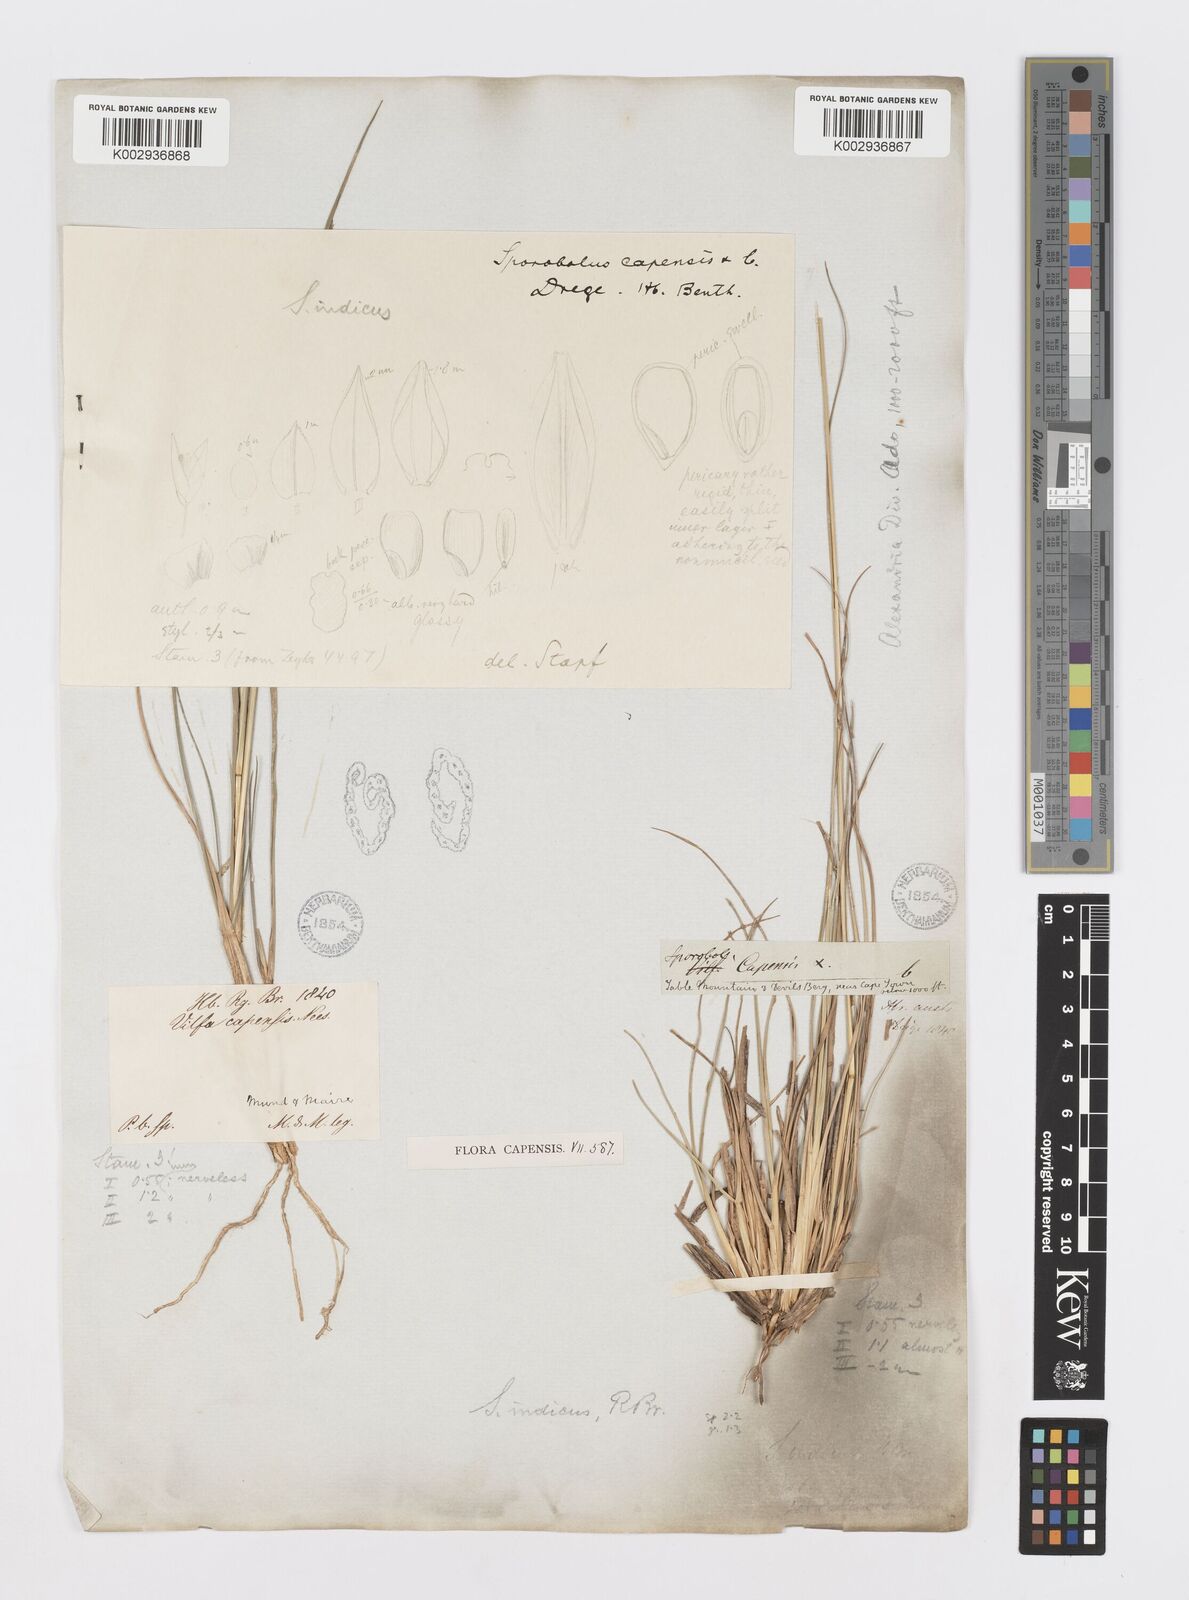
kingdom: Plantae
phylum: Tracheophyta
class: Liliopsida
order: Poales
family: Poaceae
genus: Sporobolus
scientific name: Sporobolus africanus
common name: African dropseed
